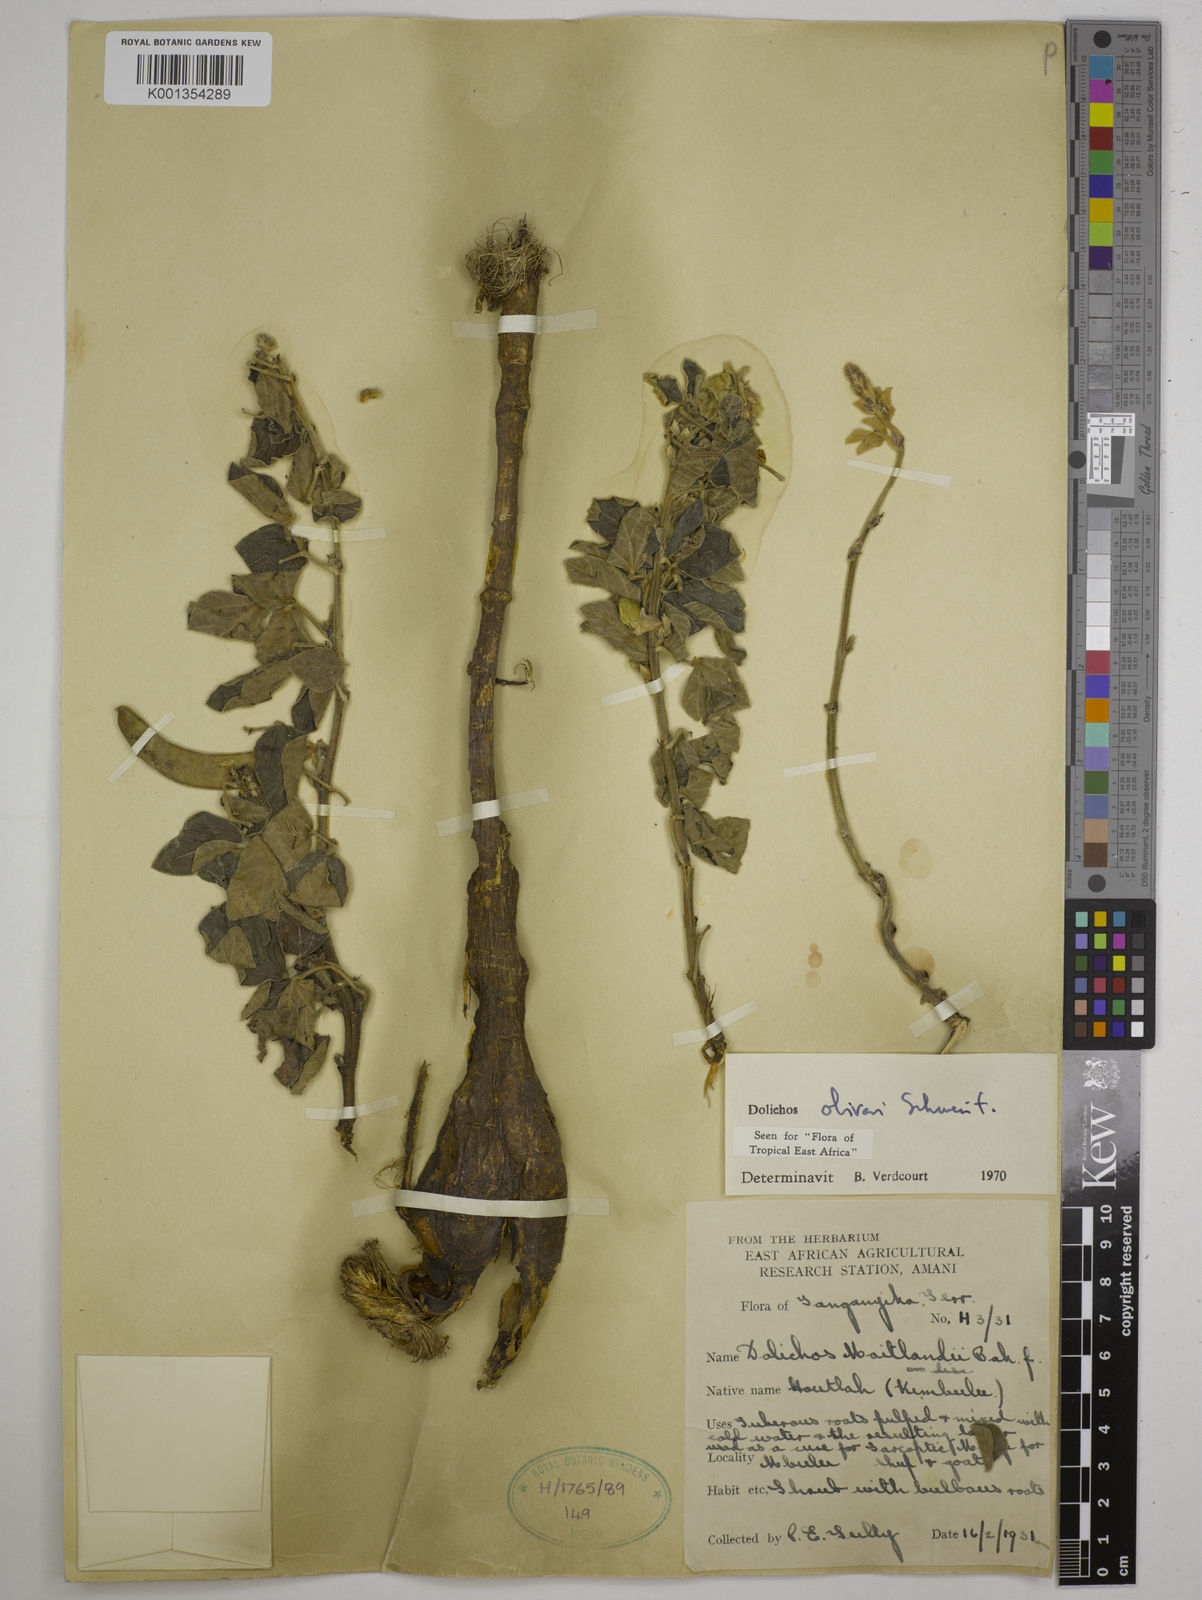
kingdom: Plantae
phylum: Tracheophyta
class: Magnoliopsida
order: Fabales
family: Fabaceae
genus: Dolichos
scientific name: Dolichos oliveri
